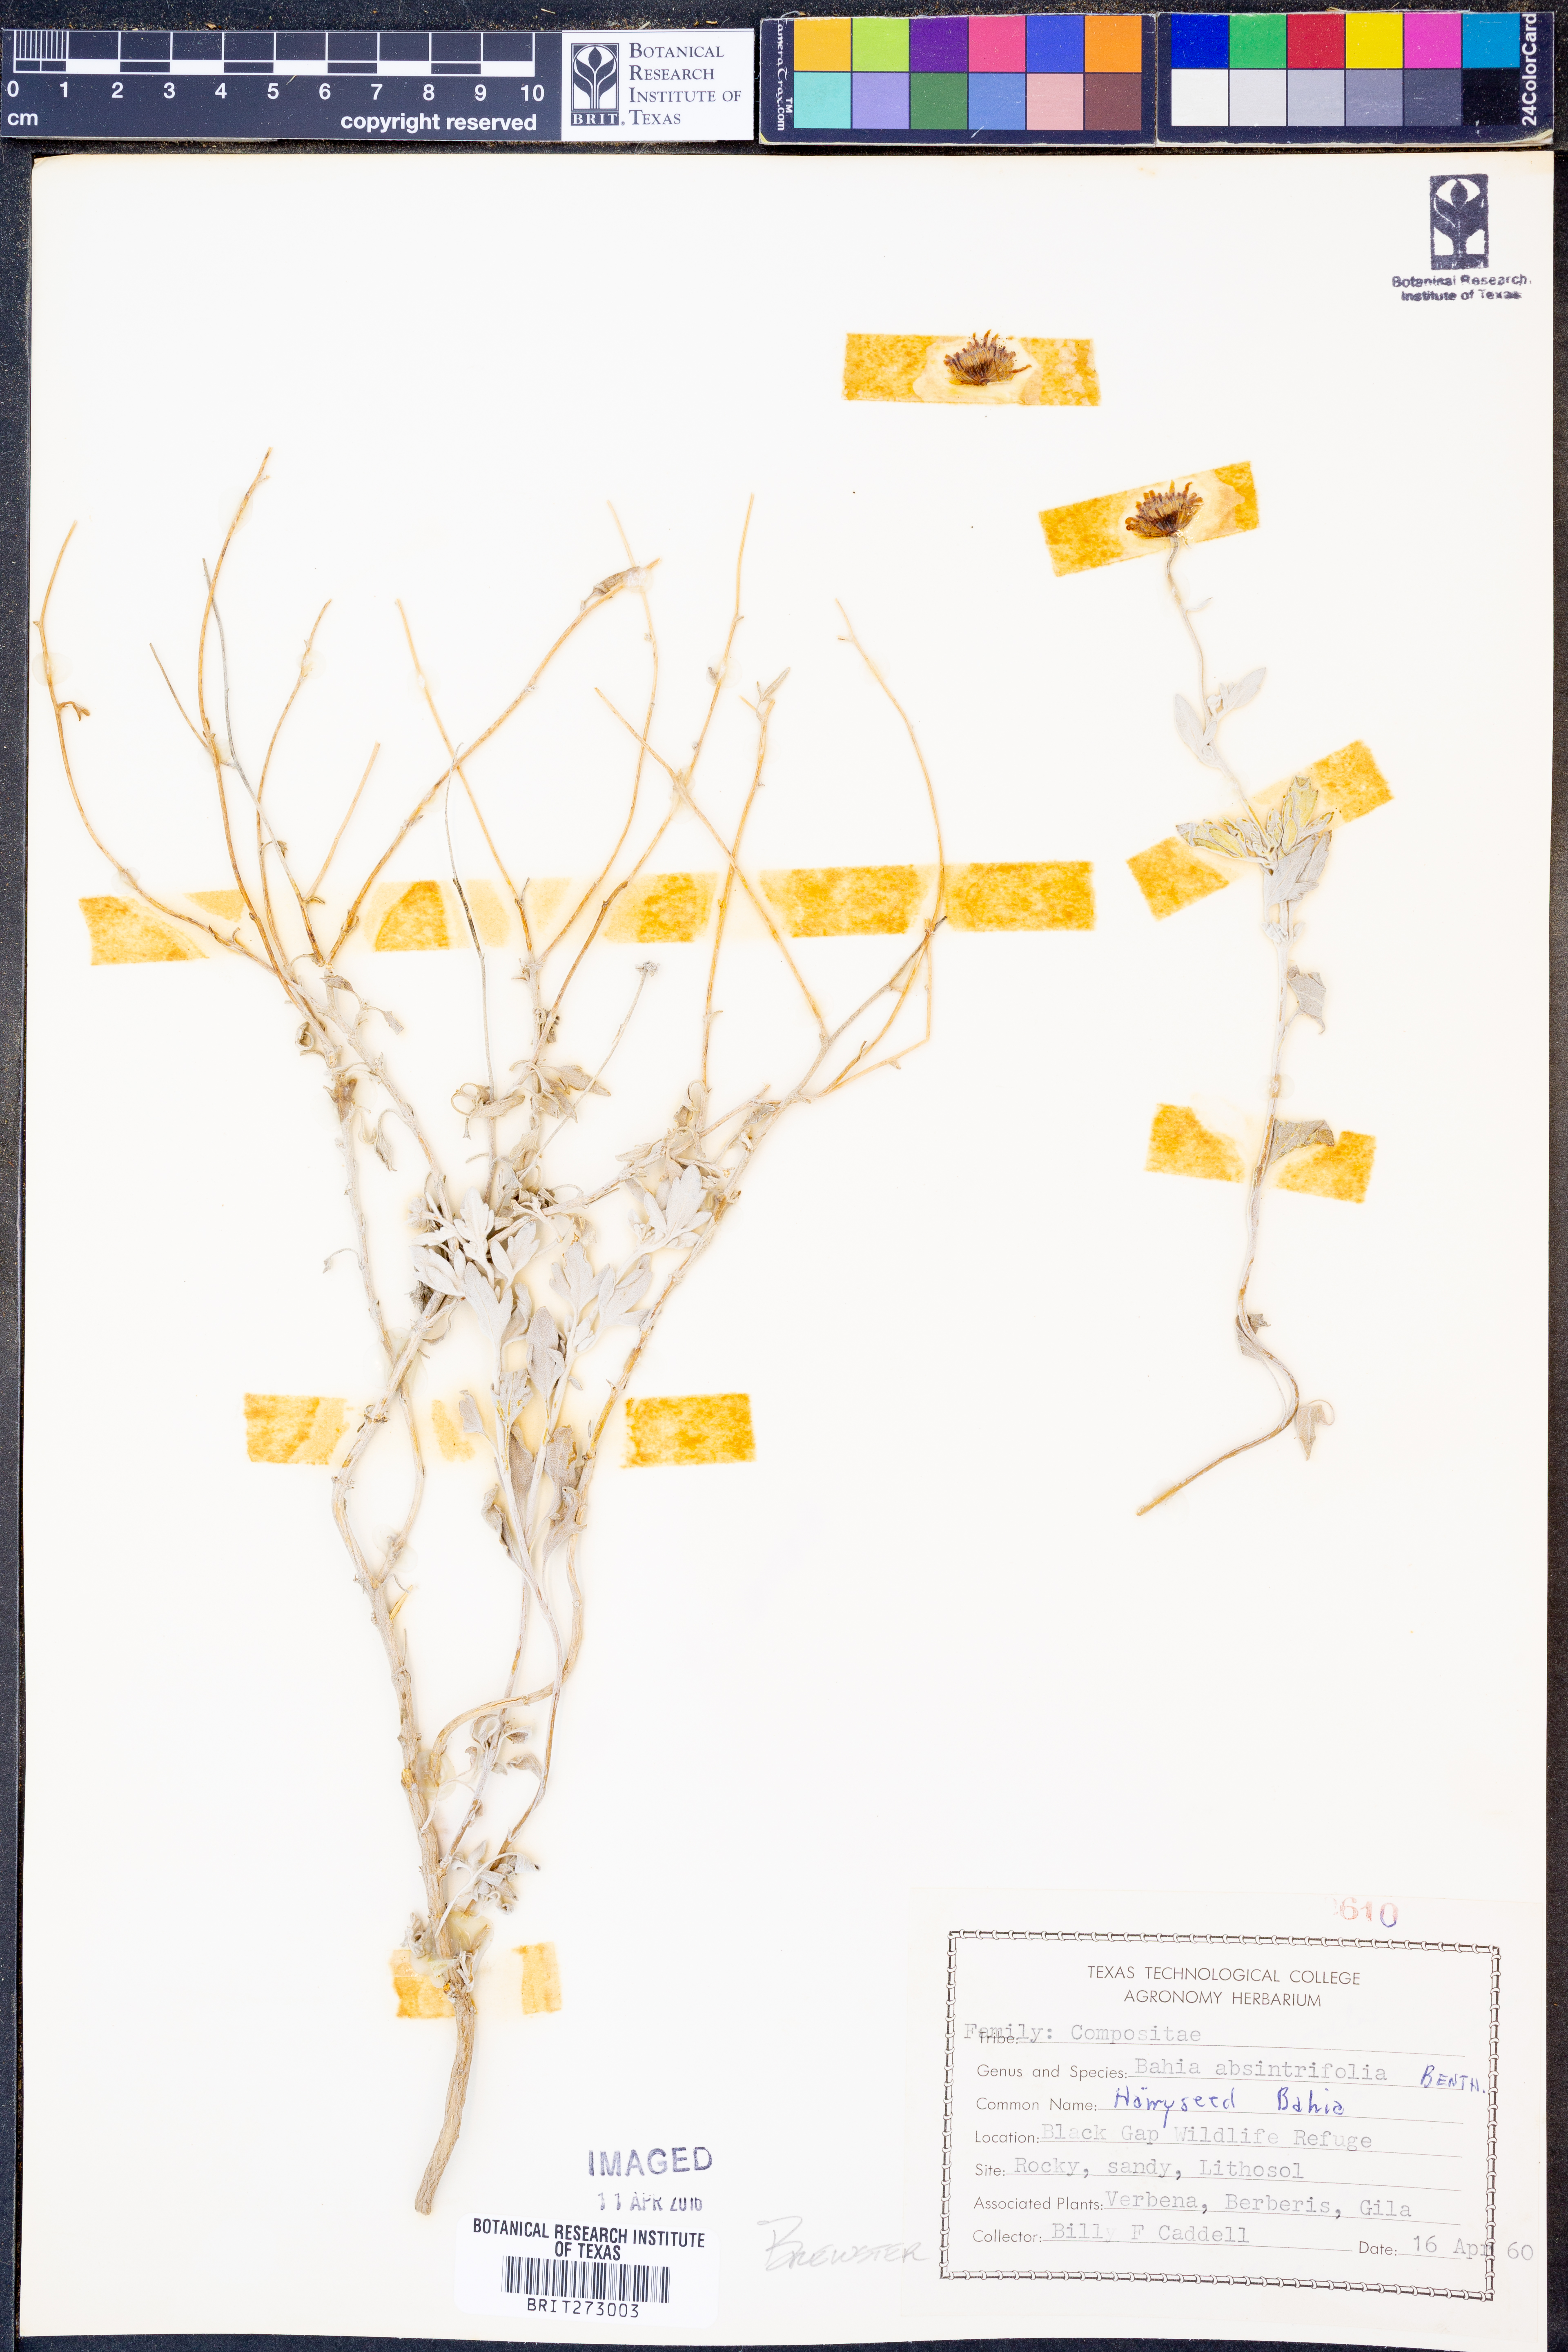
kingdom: Plantae
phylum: Tracheophyta
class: Magnoliopsida
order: Asterales
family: Asteraceae
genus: Picradeniopsis
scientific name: Picradeniopsis absinthifolia
